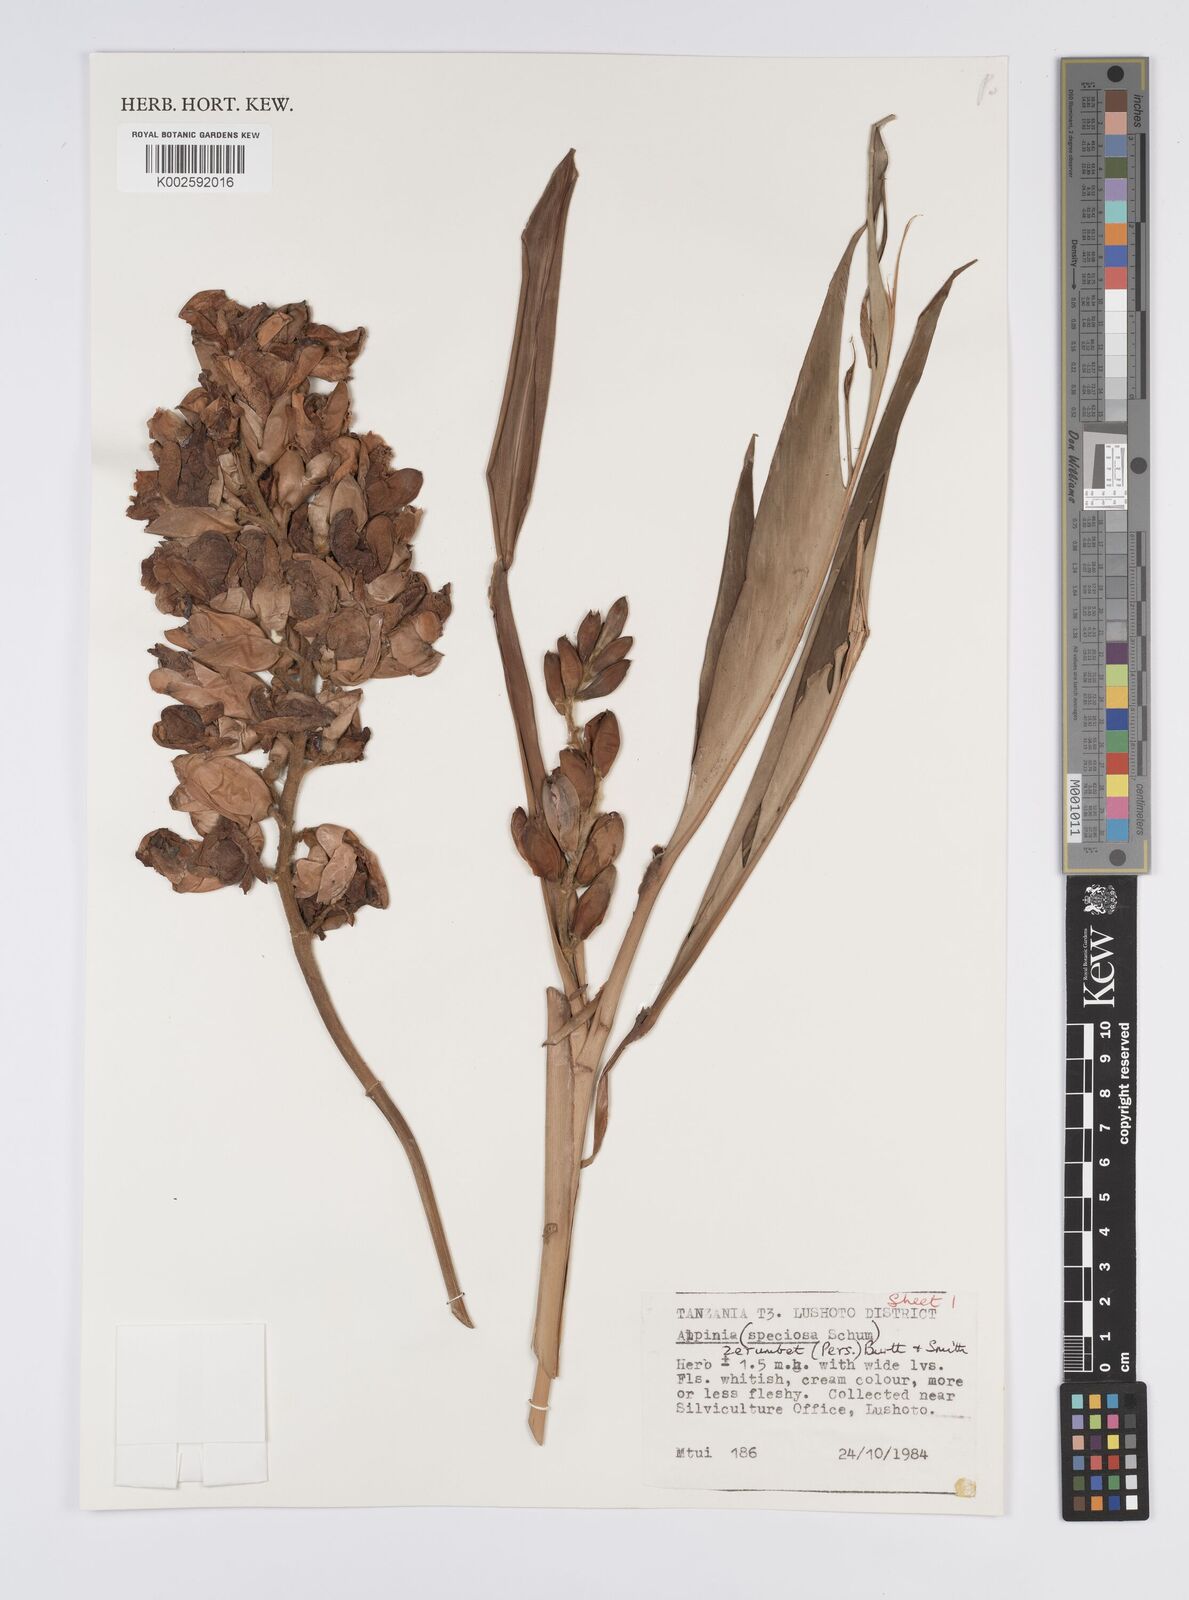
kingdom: Plantae
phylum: Tracheophyta
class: Liliopsida
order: Zingiberales
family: Zingiberaceae
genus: Alpinia
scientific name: Alpinia zerumbet
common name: Shellplant
